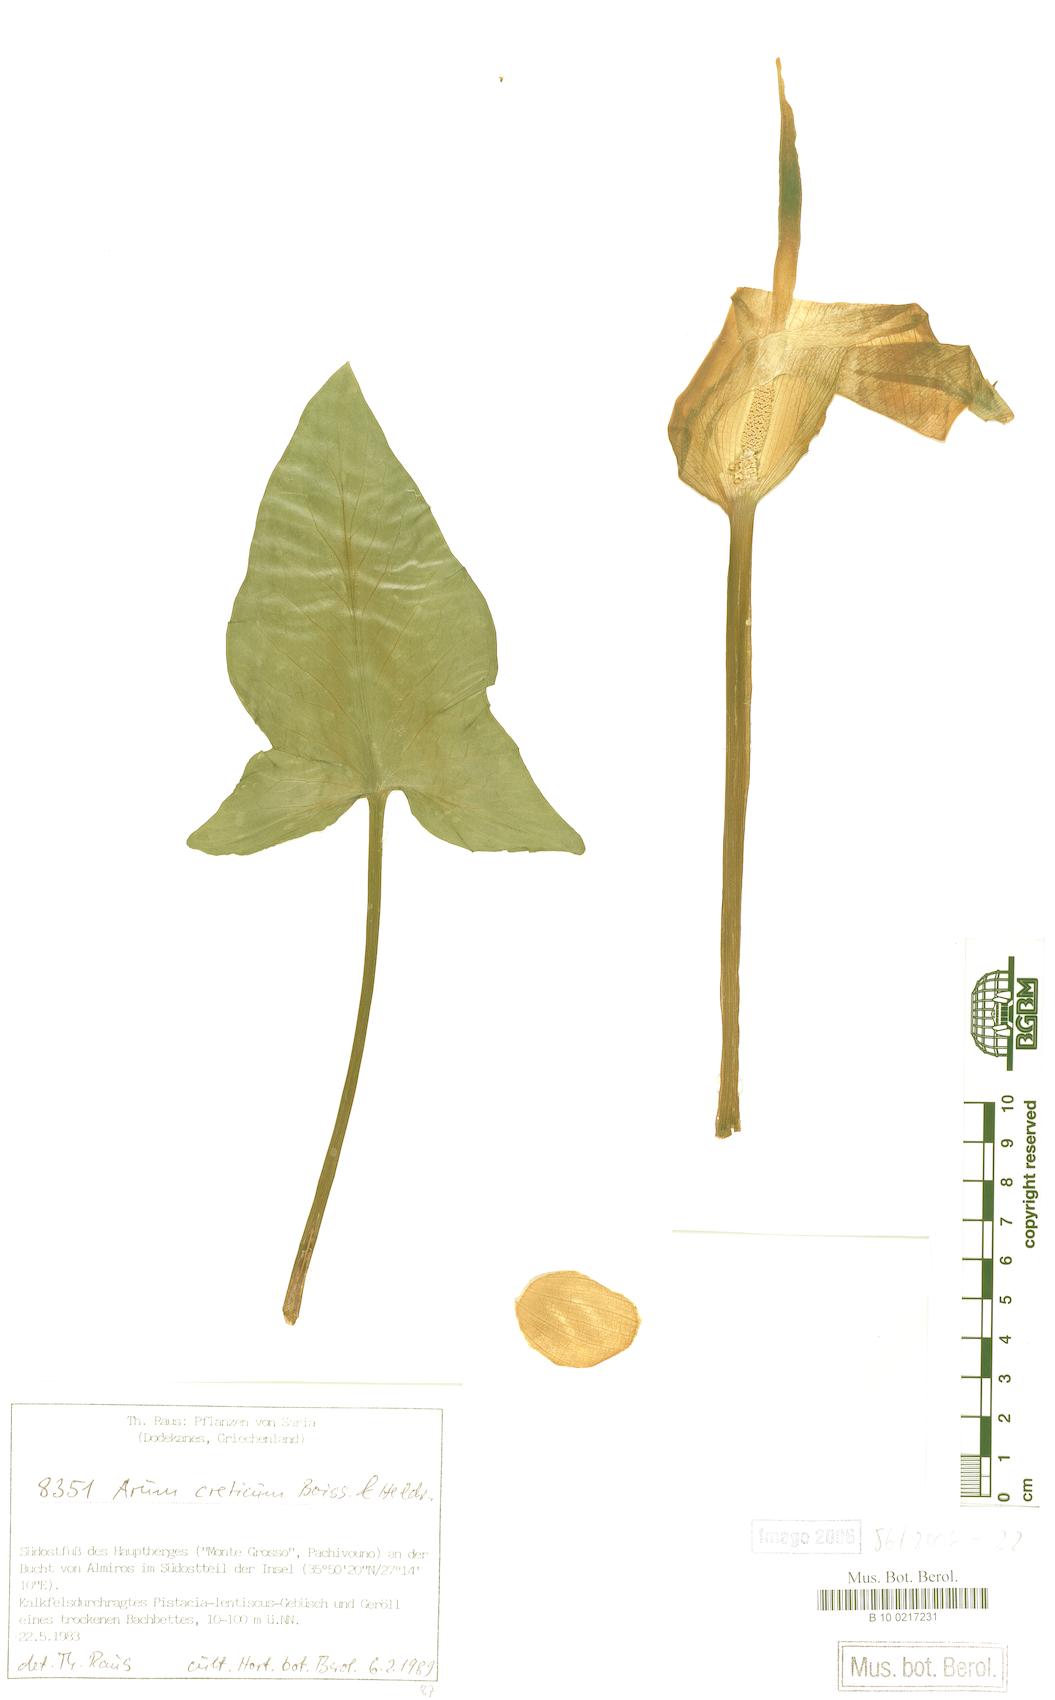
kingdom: Plantae
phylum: Tracheophyta
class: Liliopsida
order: Alismatales
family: Araceae
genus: Arum
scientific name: Arum creticum
